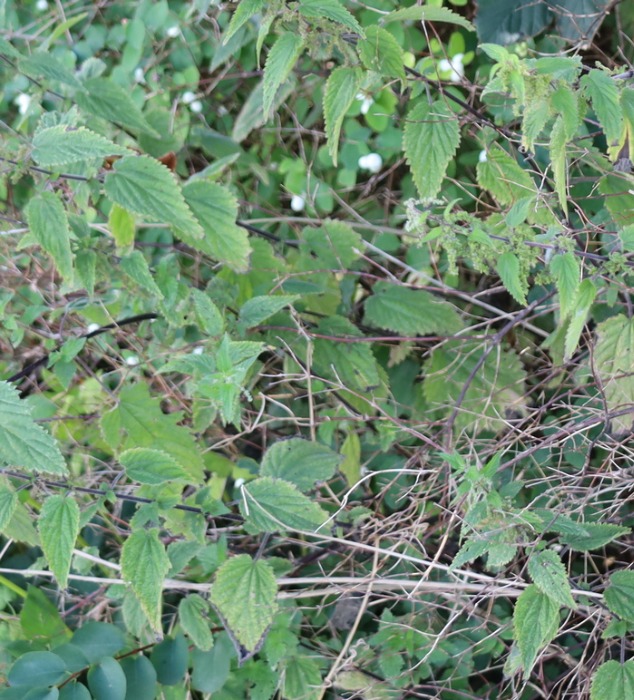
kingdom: Plantae
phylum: Tracheophyta
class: Magnoliopsida
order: Rosales
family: Urticaceae
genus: Urtica
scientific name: Urtica dioica
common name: Stor nælde
